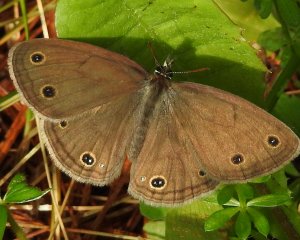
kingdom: Animalia
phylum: Arthropoda
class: Insecta
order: Lepidoptera
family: Nymphalidae
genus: Euptychia
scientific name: Euptychia cymela
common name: Little Wood Satyr
